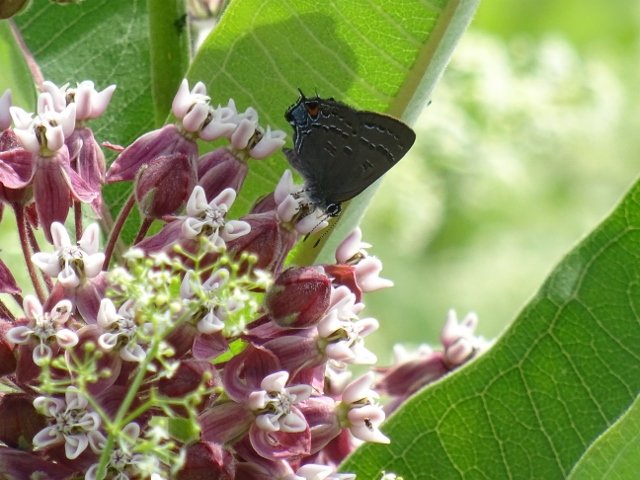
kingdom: Animalia
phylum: Arthropoda
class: Insecta
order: Lepidoptera
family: Lycaenidae
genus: Satyrium
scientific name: Satyrium calanus
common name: Banded Hairstreak
